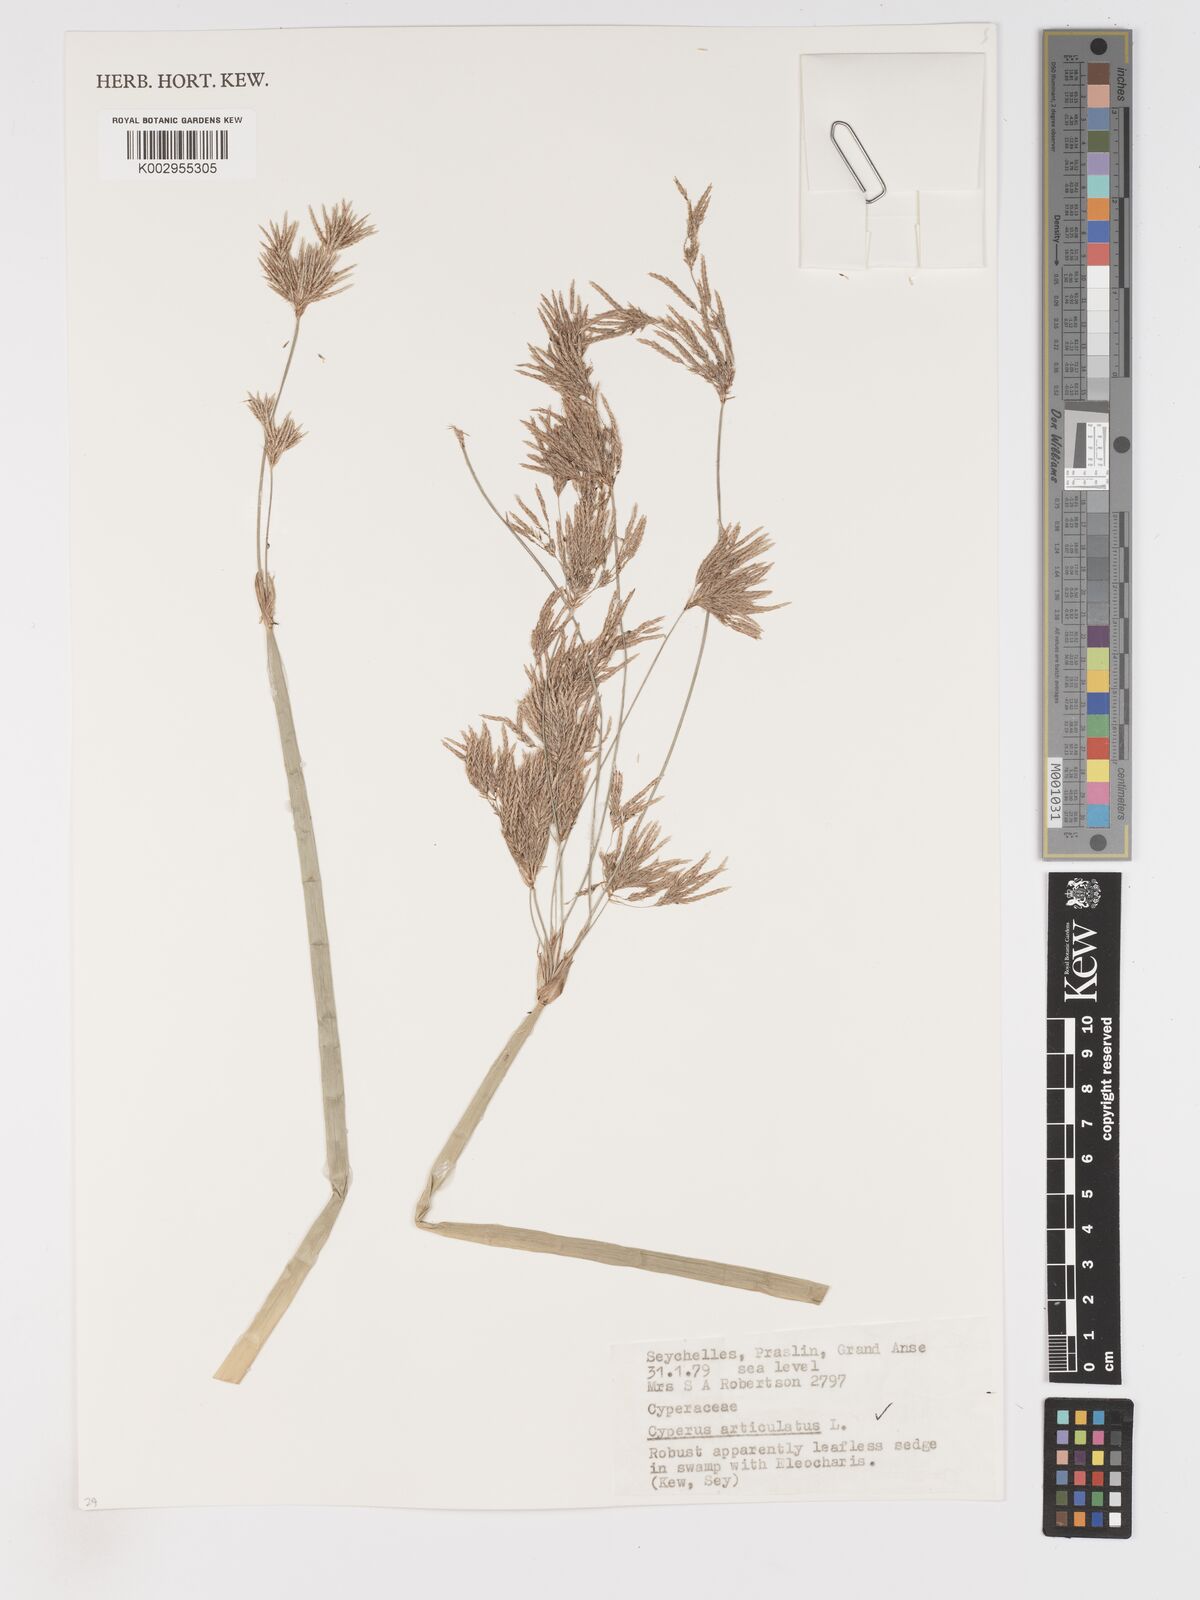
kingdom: Plantae
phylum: Tracheophyta
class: Liliopsida
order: Poales
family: Cyperaceae
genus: Cyperus
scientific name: Cyperus articulatus
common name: Jointed flatsedge
